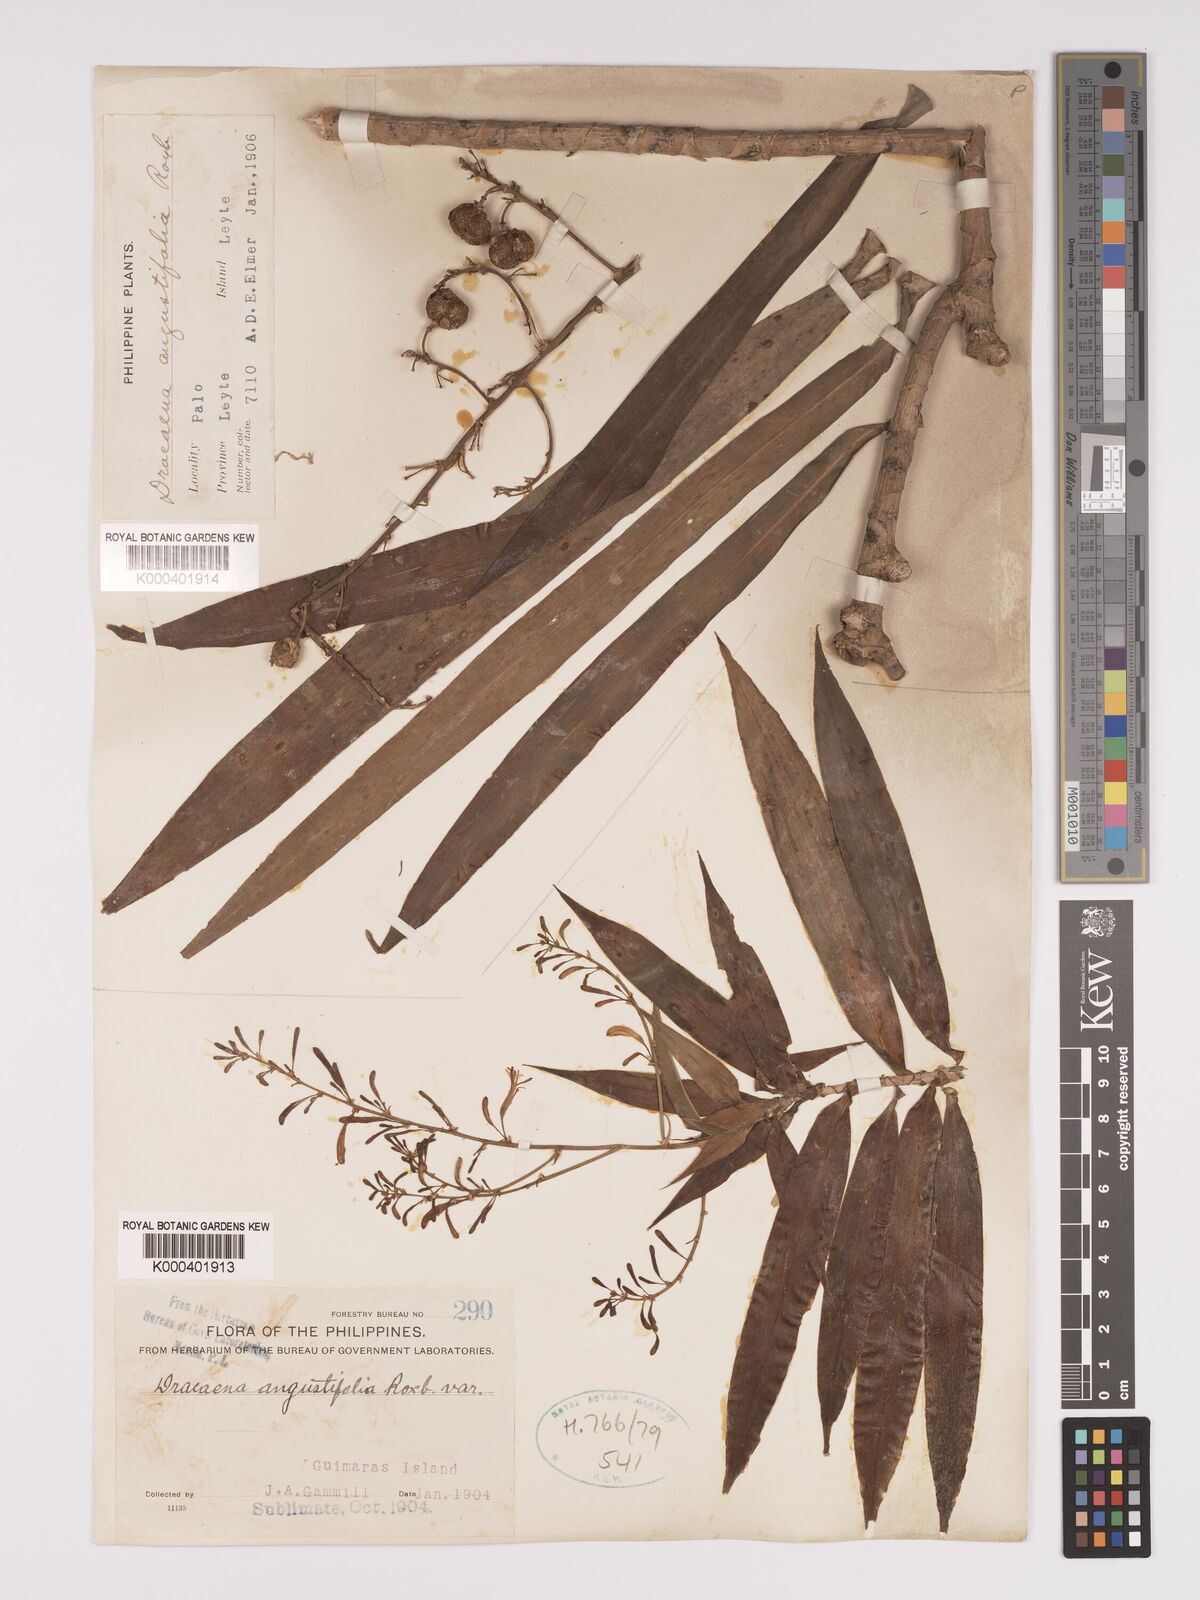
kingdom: Plantae
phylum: Tracheophyta
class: Liliopsida
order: Asparagales
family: Asparagaceae
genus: Dracaena
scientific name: Dracaena angustifolia
